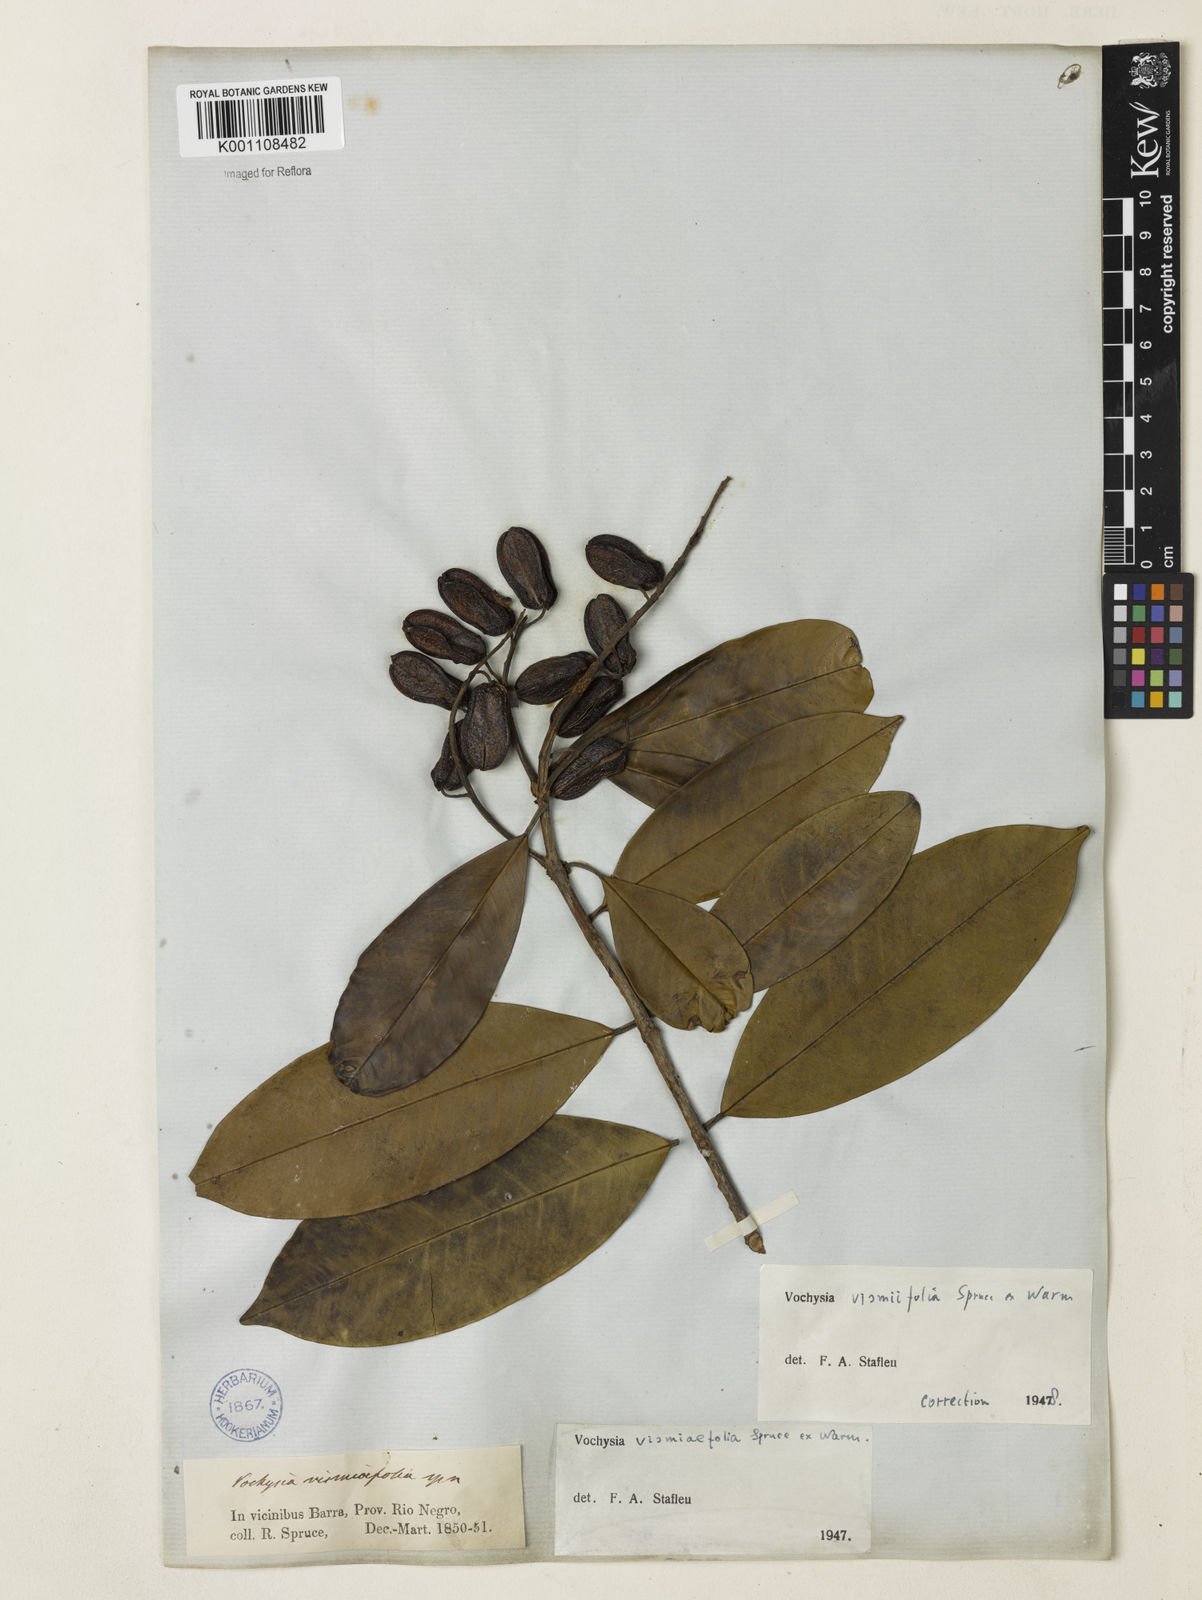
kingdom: Plantae
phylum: Tracheophyta
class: Magnoliopsida
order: Myrtales
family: Vochysiaceae
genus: Vochysia
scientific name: Vochysia vismiifolia
